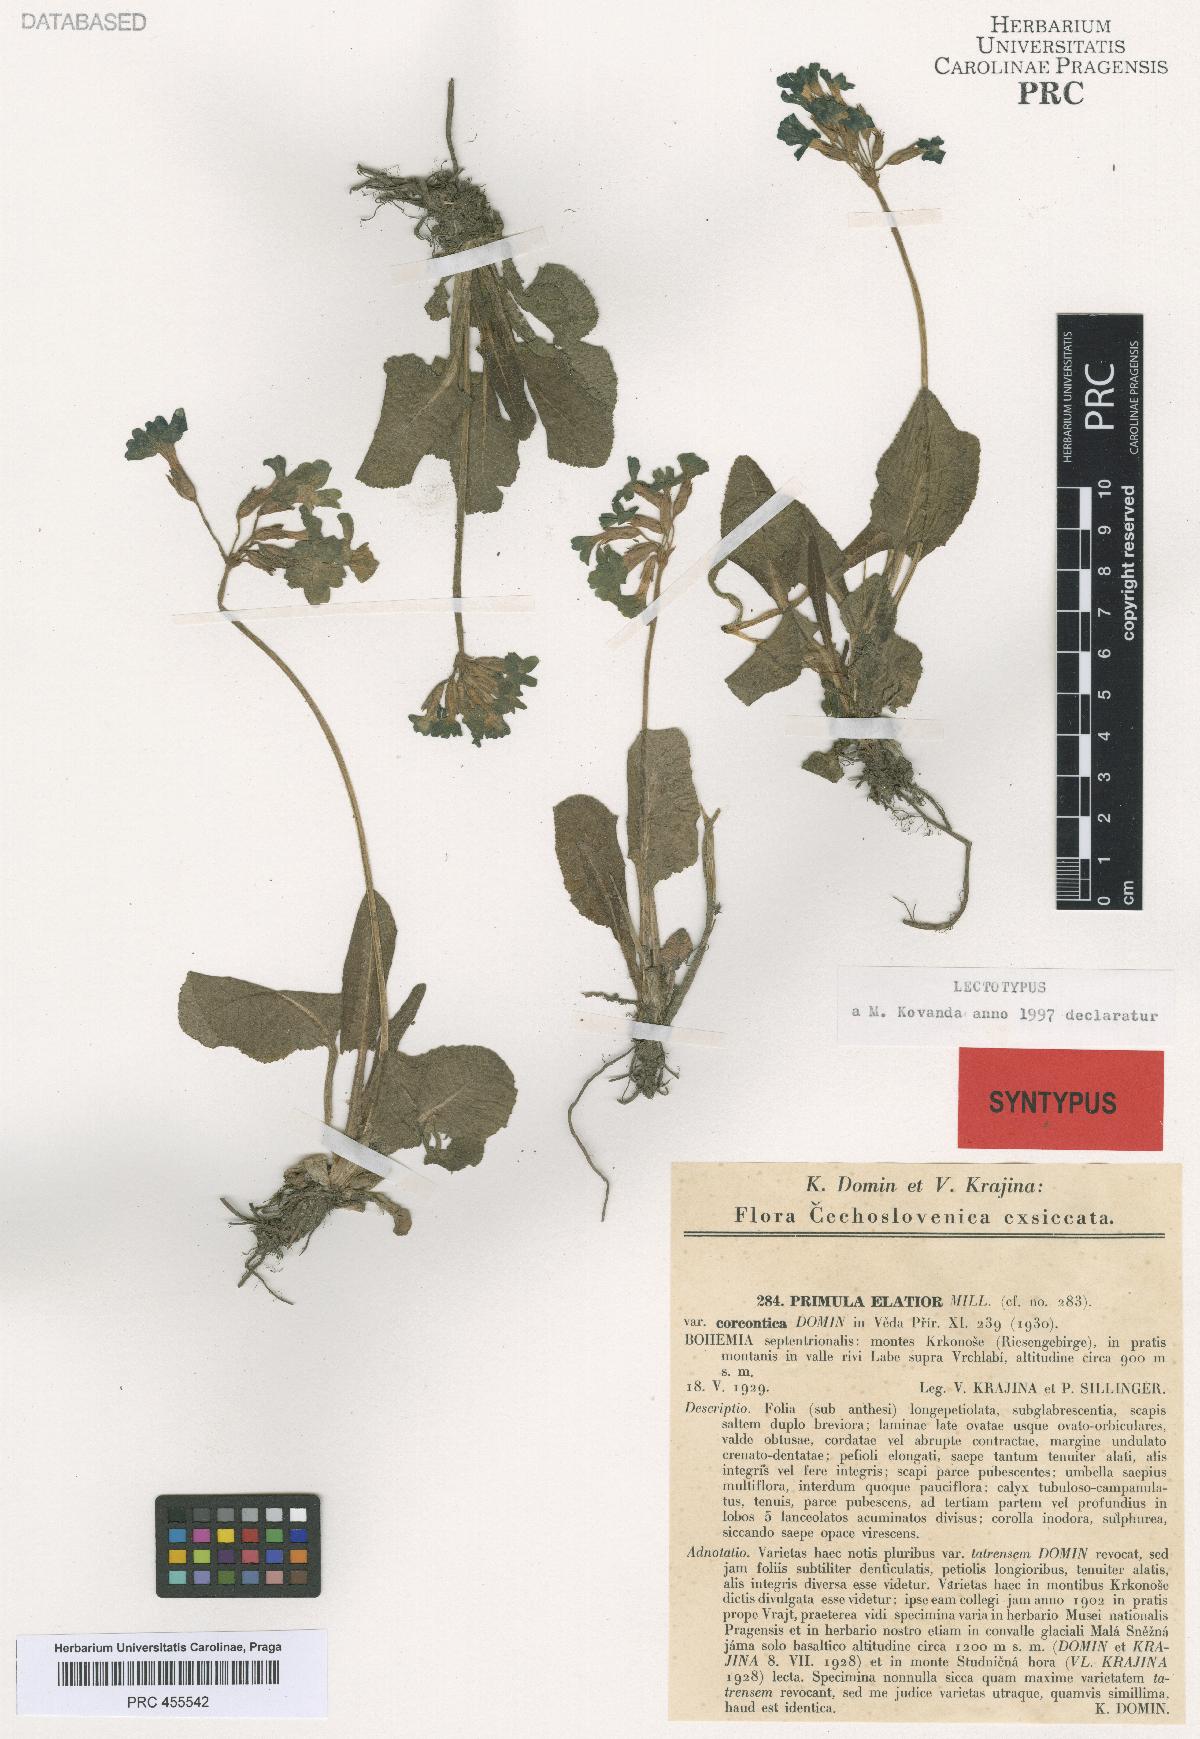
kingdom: Plantae
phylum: Tracheophyta
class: Magnoliopsida
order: Ericales
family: Primulaceae
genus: Primula
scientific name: Primula elatior
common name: Oxlip
